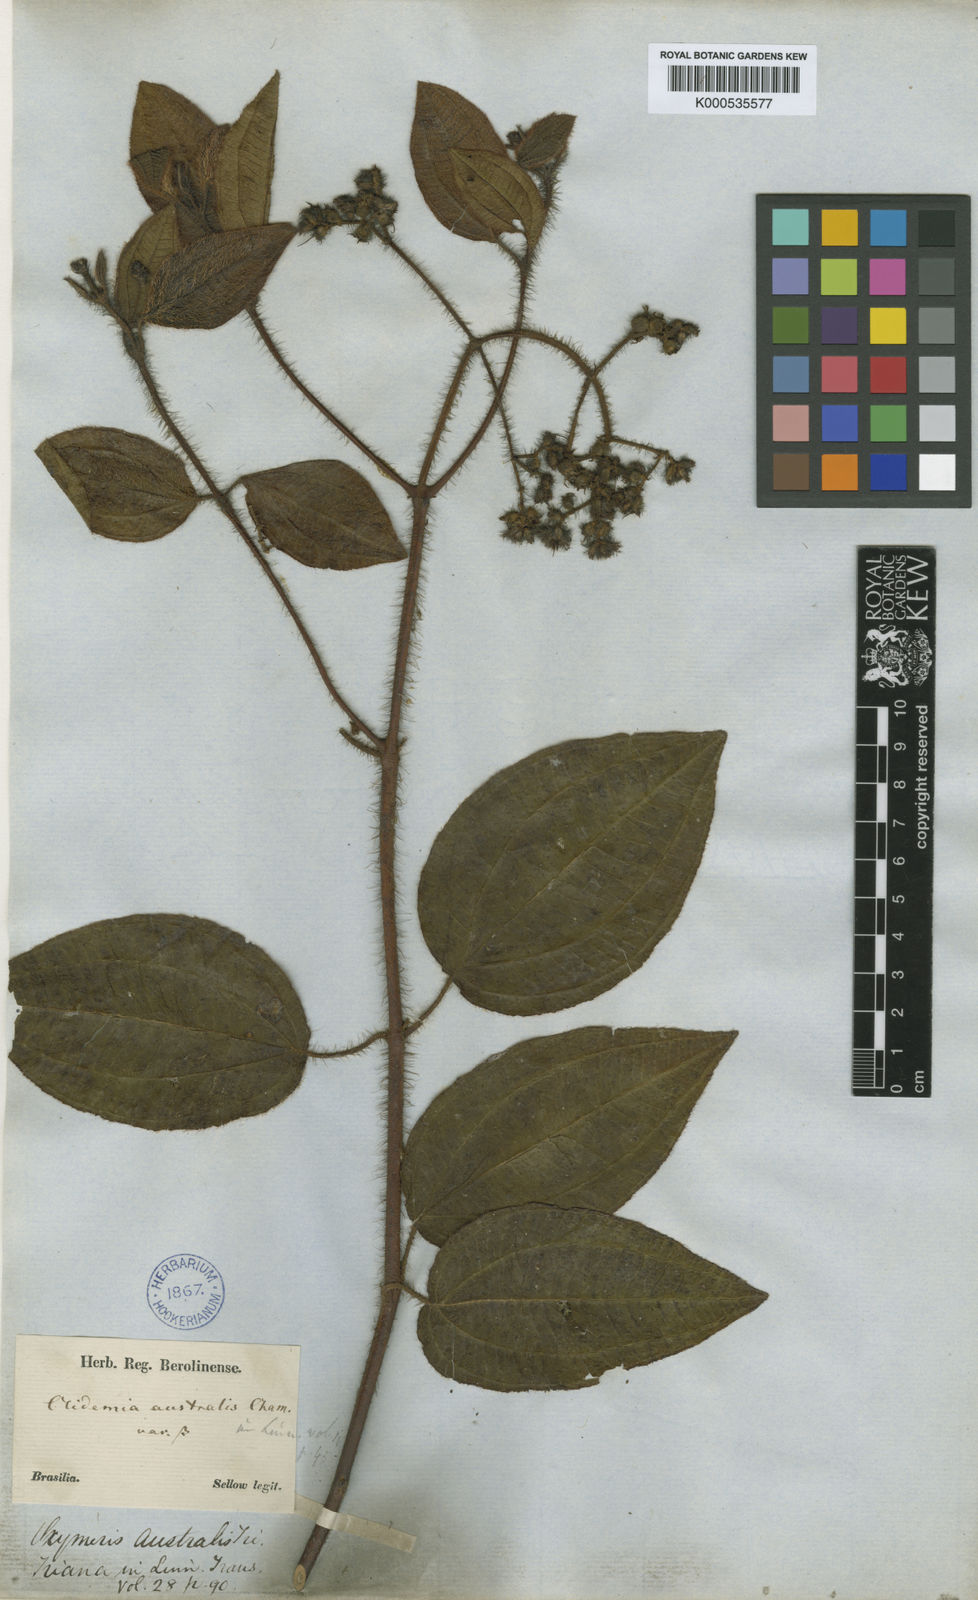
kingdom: Plantae
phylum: Tracheophyta
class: Magnoliopsida
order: Myrtales
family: Melastomataceae
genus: Miconia
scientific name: Miconia australis
